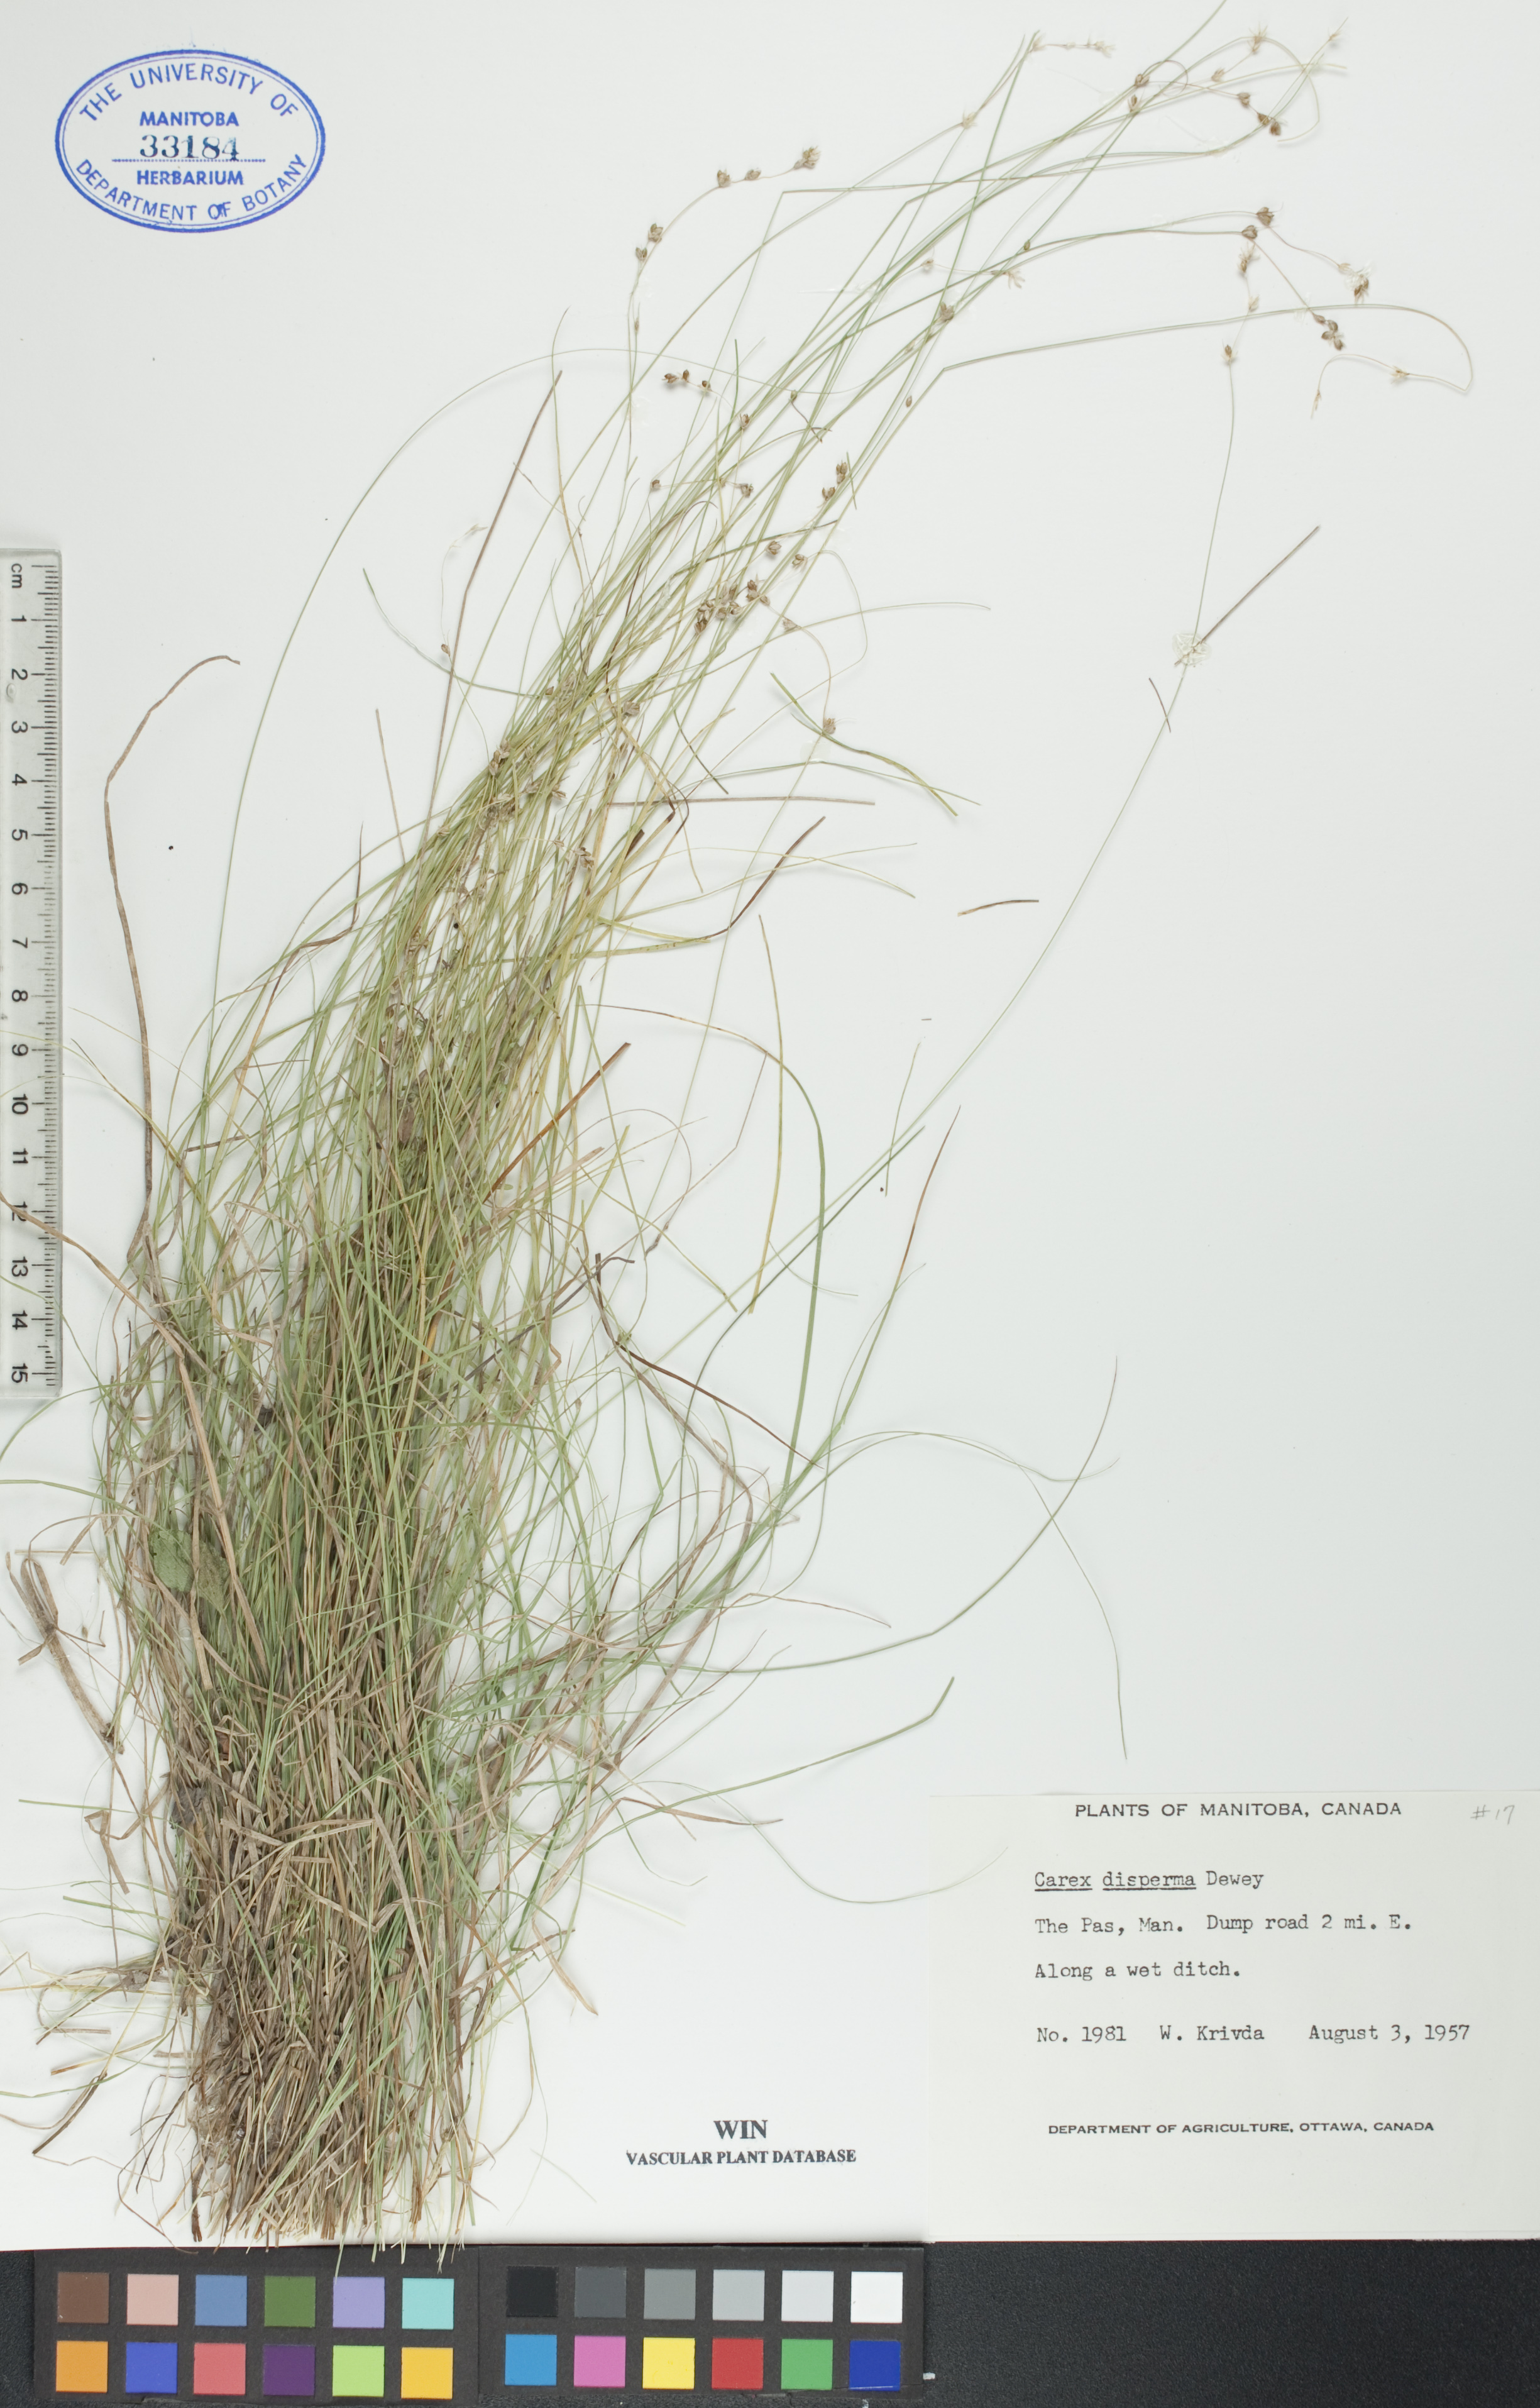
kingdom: Plantae
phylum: Tracheophyta
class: Liliopsida
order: Poales
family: Cyperaceae
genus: Carex
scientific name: Carex disperma
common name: Short-leaved sedge
